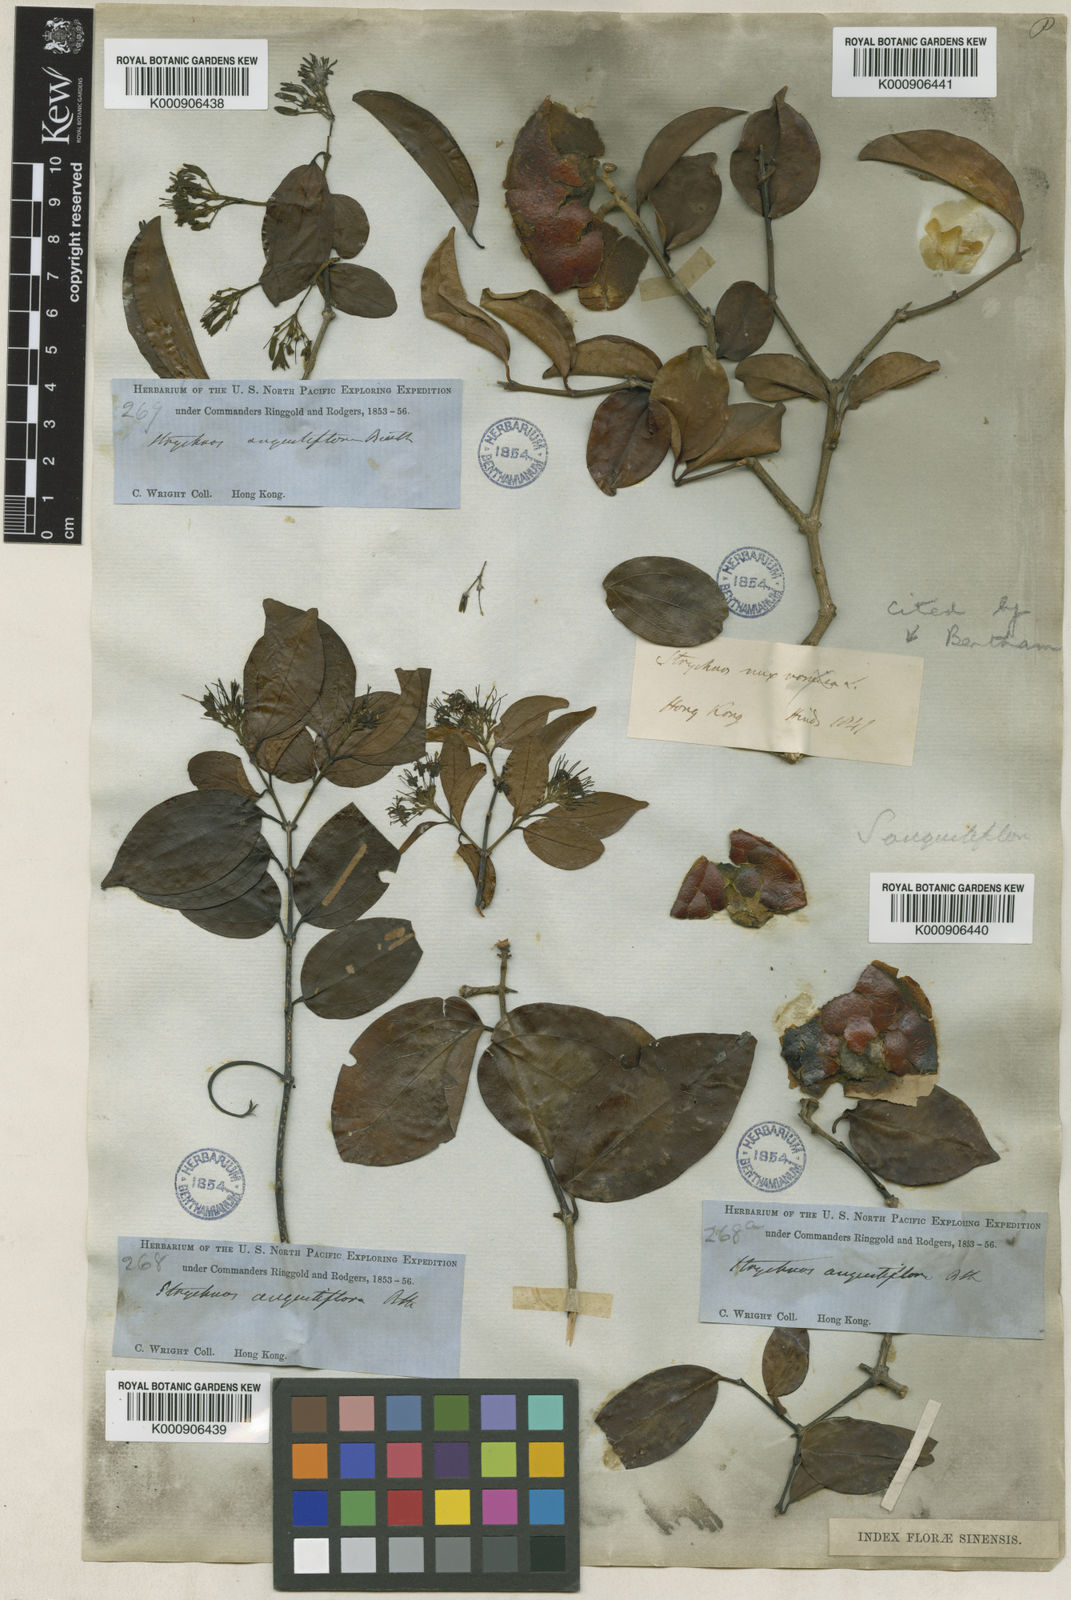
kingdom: Plantae
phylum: Tracheophyta
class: Magnoliopsida
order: Gentianales
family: Loganiaceae
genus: Strychnos
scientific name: Strychnos angustiflora
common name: Narrow-flower poisonnut
